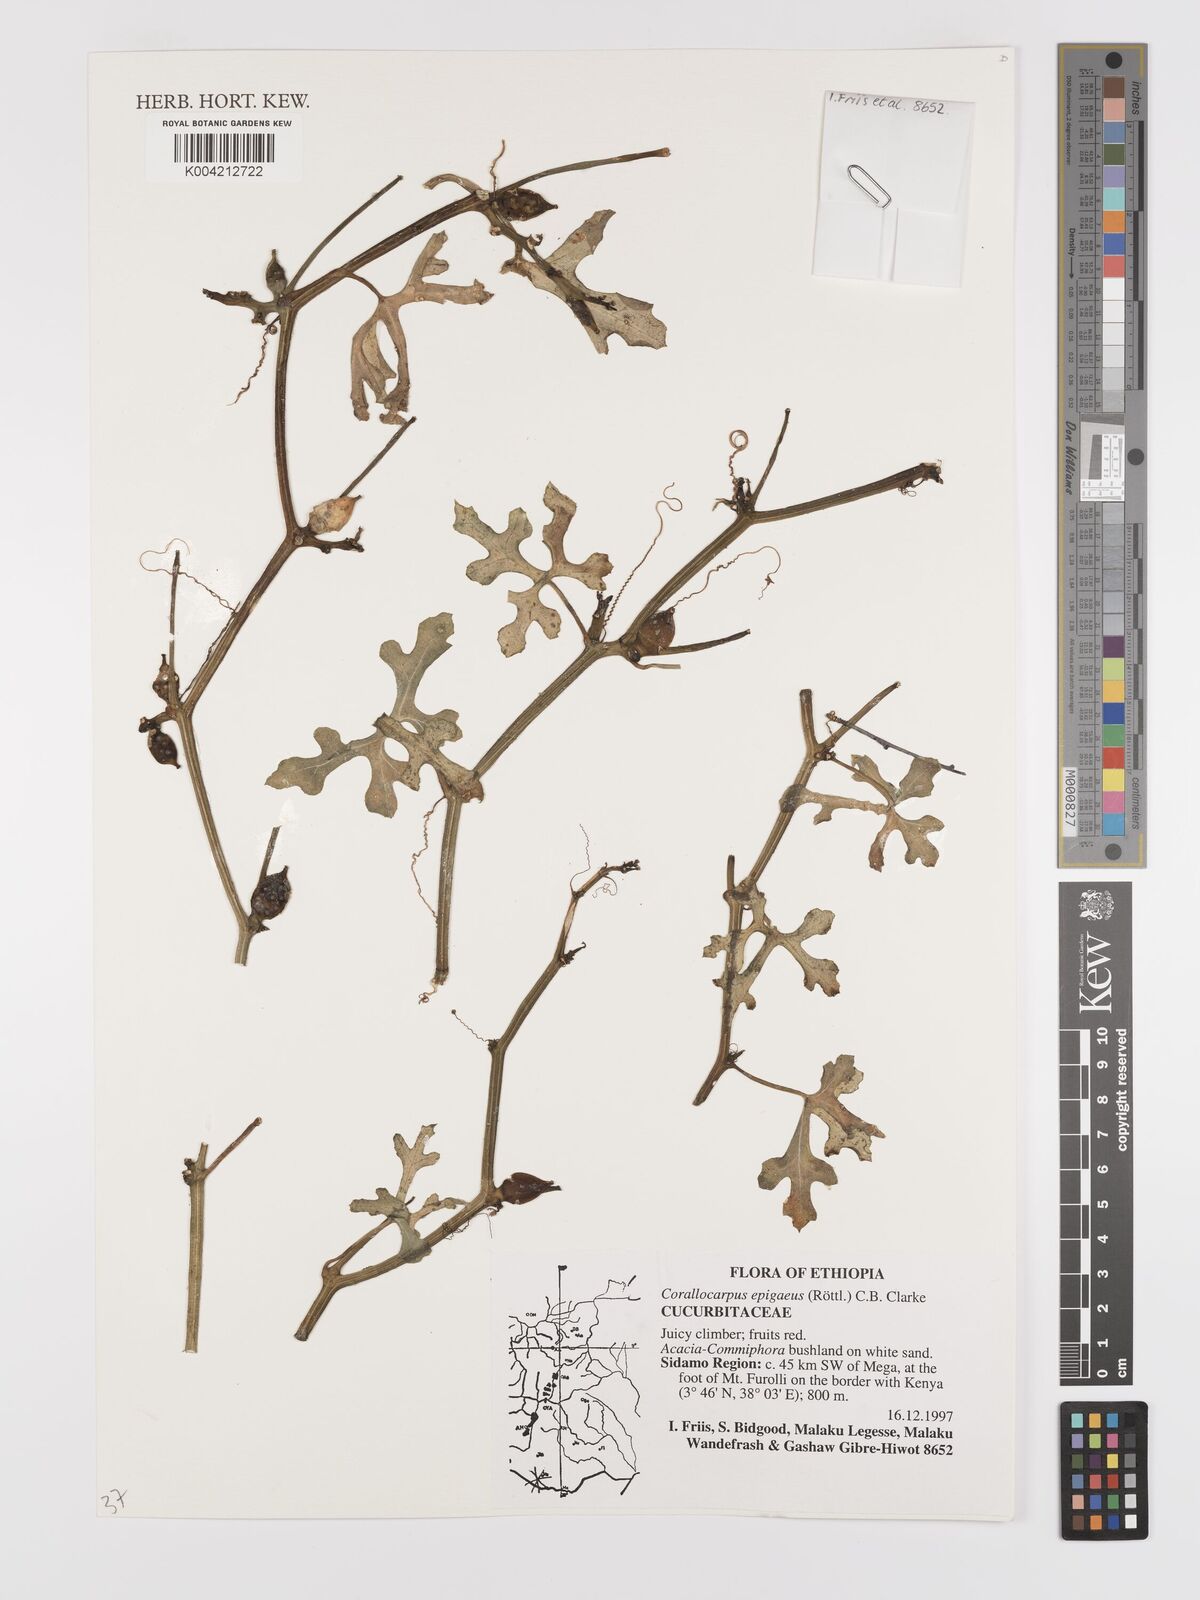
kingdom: Plantae
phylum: Tracheophyta
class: Magnoliopsida
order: Cucurbitales
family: Cucurbitaceae
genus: Corallocarpus
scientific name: Corallocarpus epigaeus
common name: Indian bryonia
